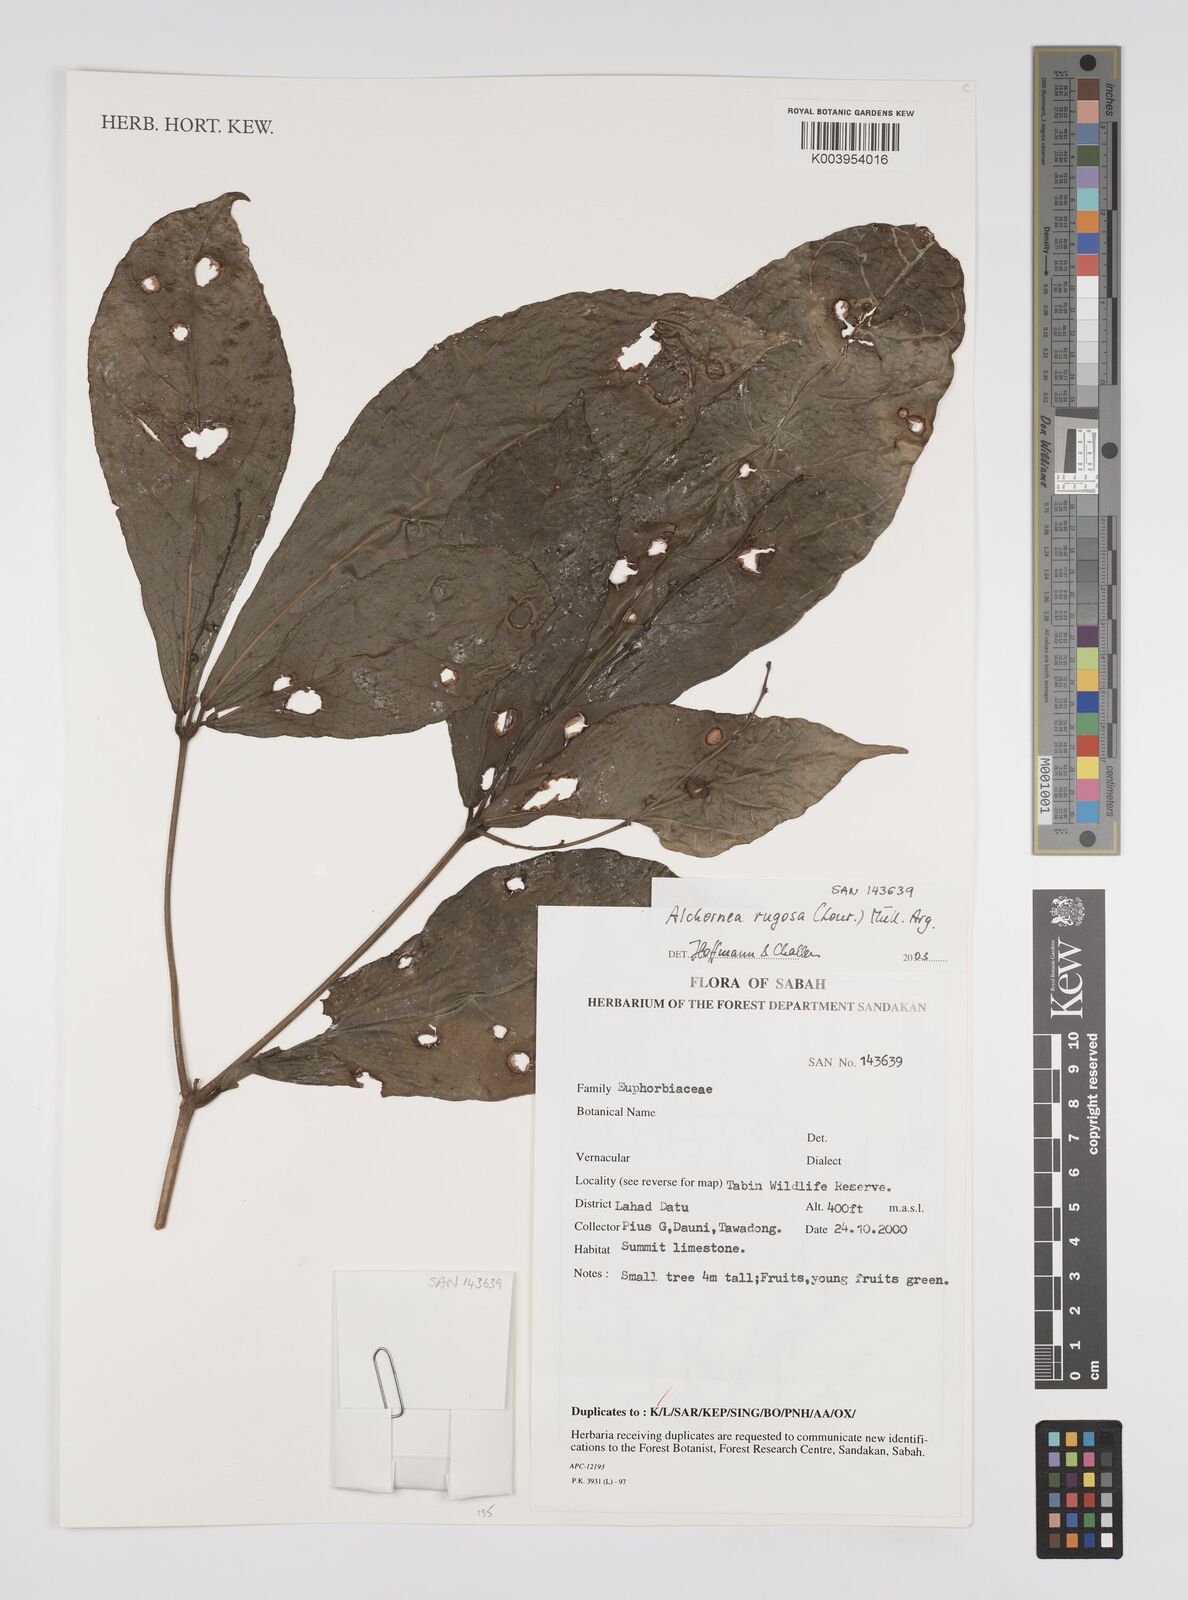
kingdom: Plantae
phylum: Tracheophyta
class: Magnoliopsida
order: Malpighiales
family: Euphorbiaceae
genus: Alchornea
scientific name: Alchornea rugosa
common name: Alchorntree
